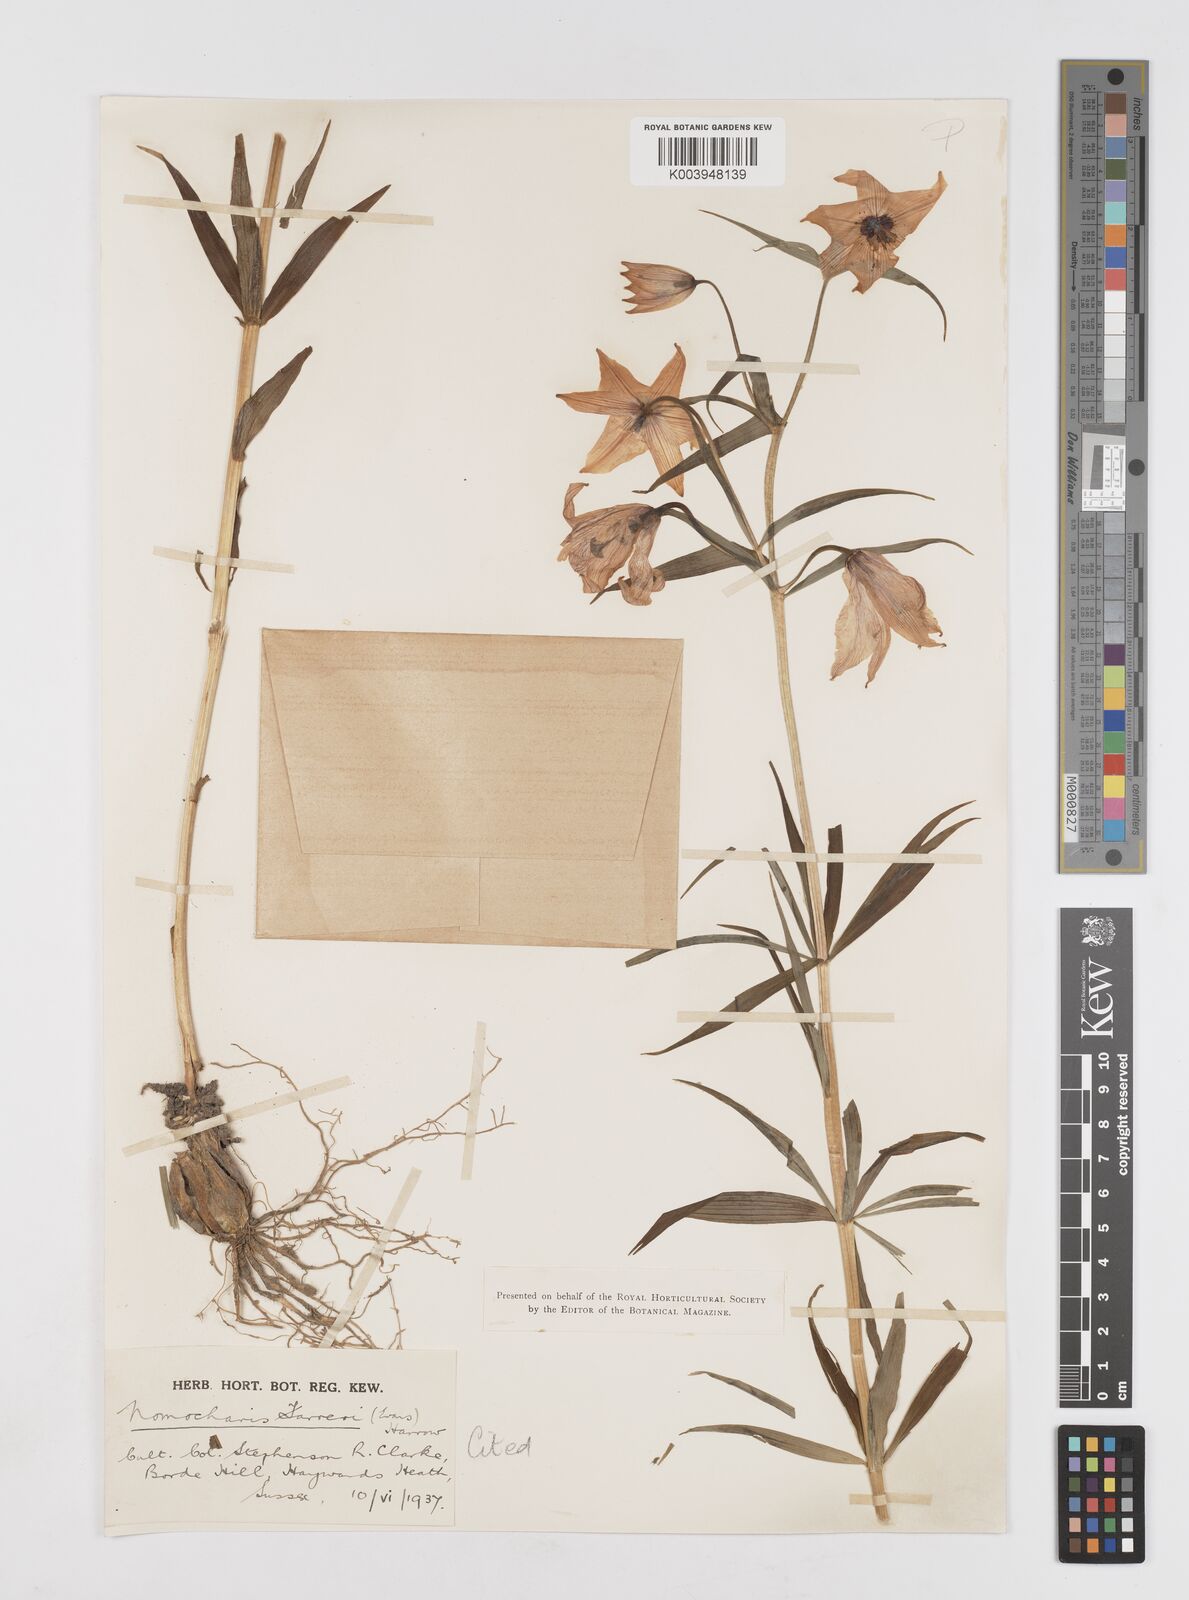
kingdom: Plantae
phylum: Tracheophyta
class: Liliopsida
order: Liliales
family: Liliaceae
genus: Lilium
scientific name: Lilium sealyi
